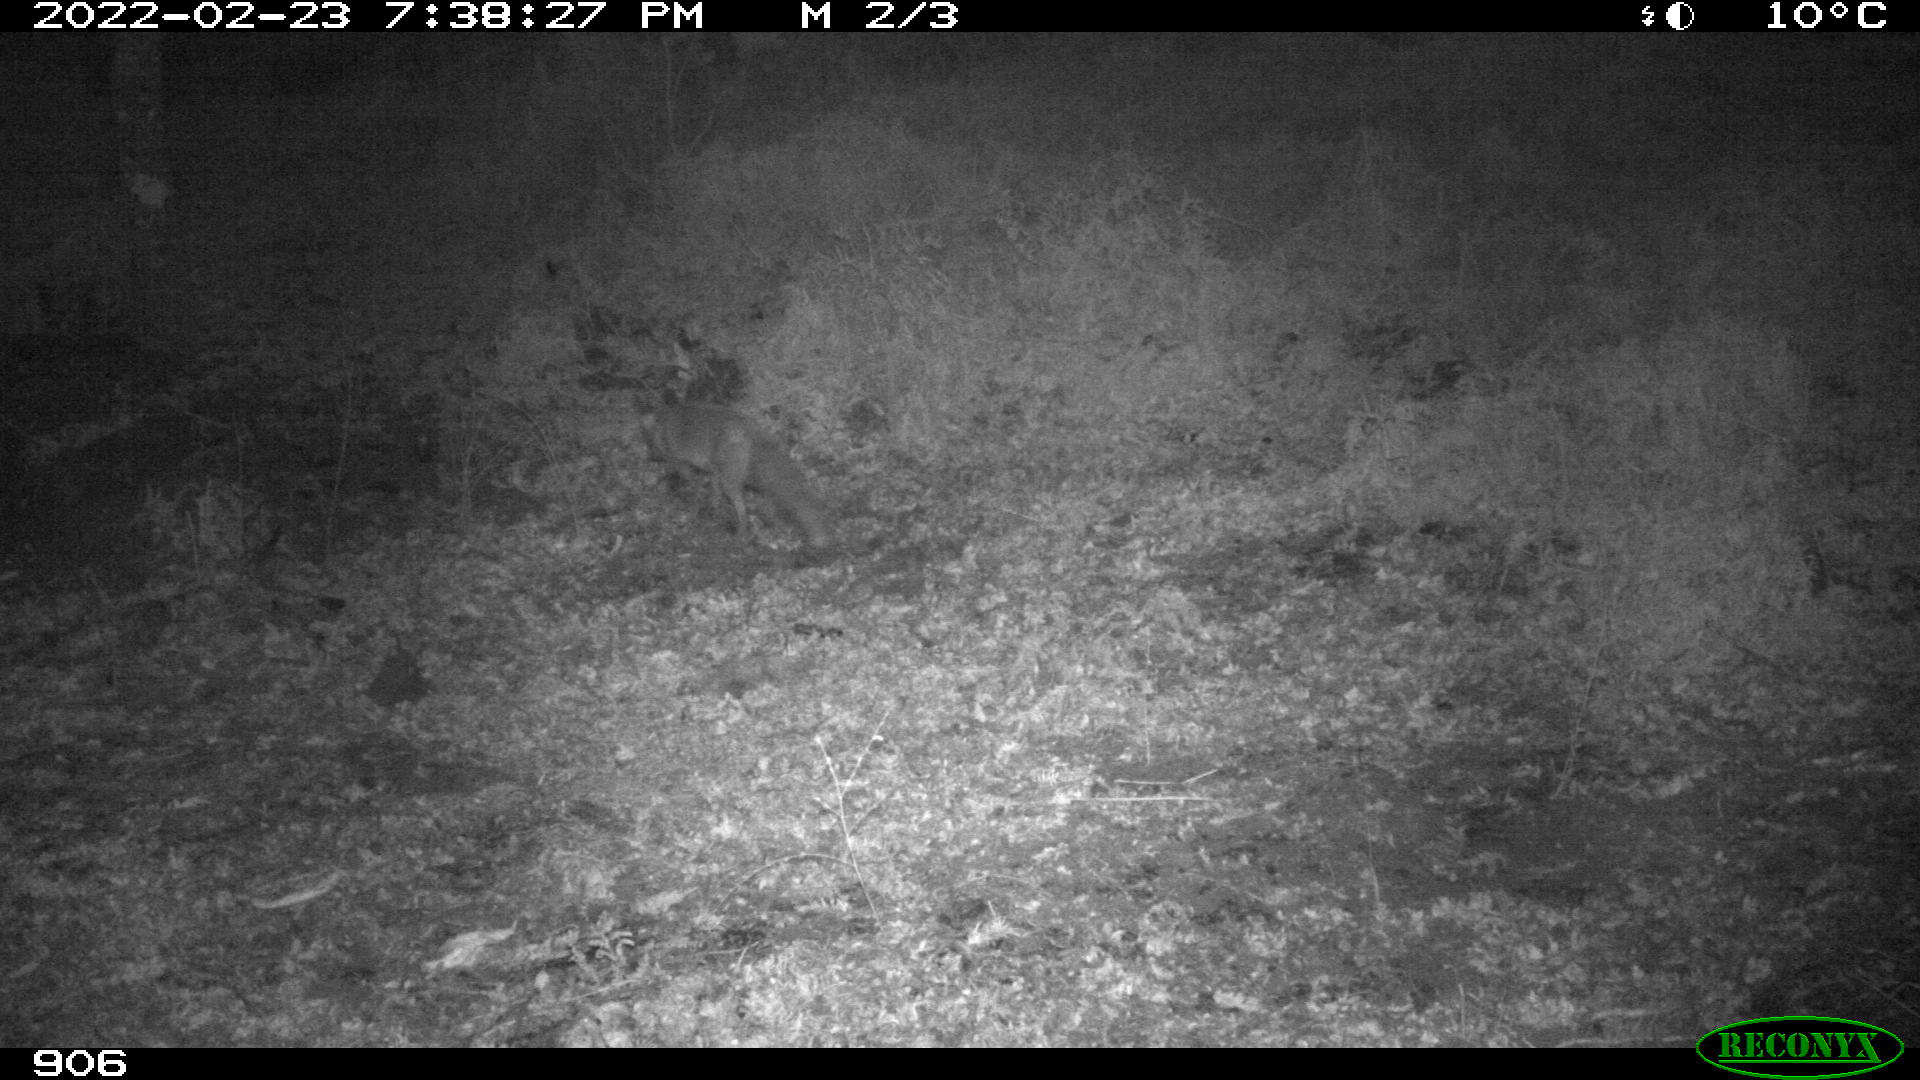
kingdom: Animalia
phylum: Chordata
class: Mammalia
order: Carnivora
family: Canidae
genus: Vulpes
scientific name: Vulpes vulpes
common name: Red fox
